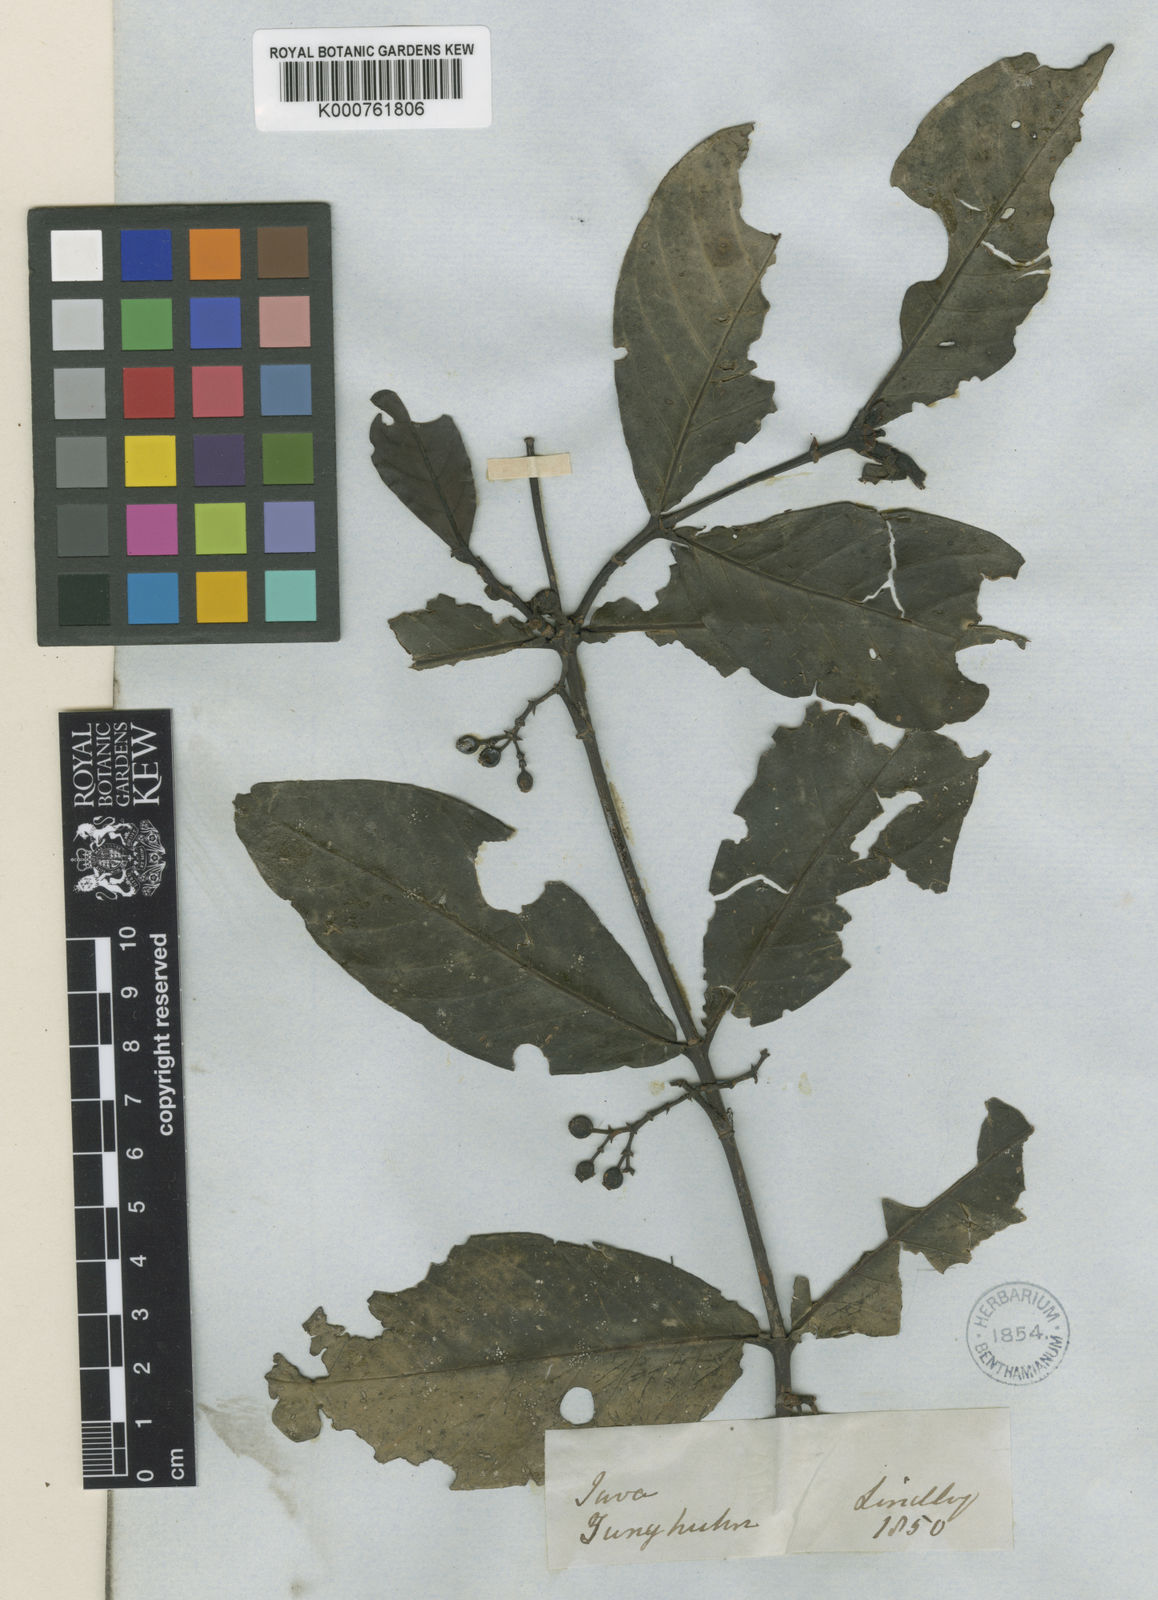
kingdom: Plantae
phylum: Tracheophyta
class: Magnoliopsida
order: Gentianales
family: Rubiaceae
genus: Aidia
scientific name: Aidia corymbosa
